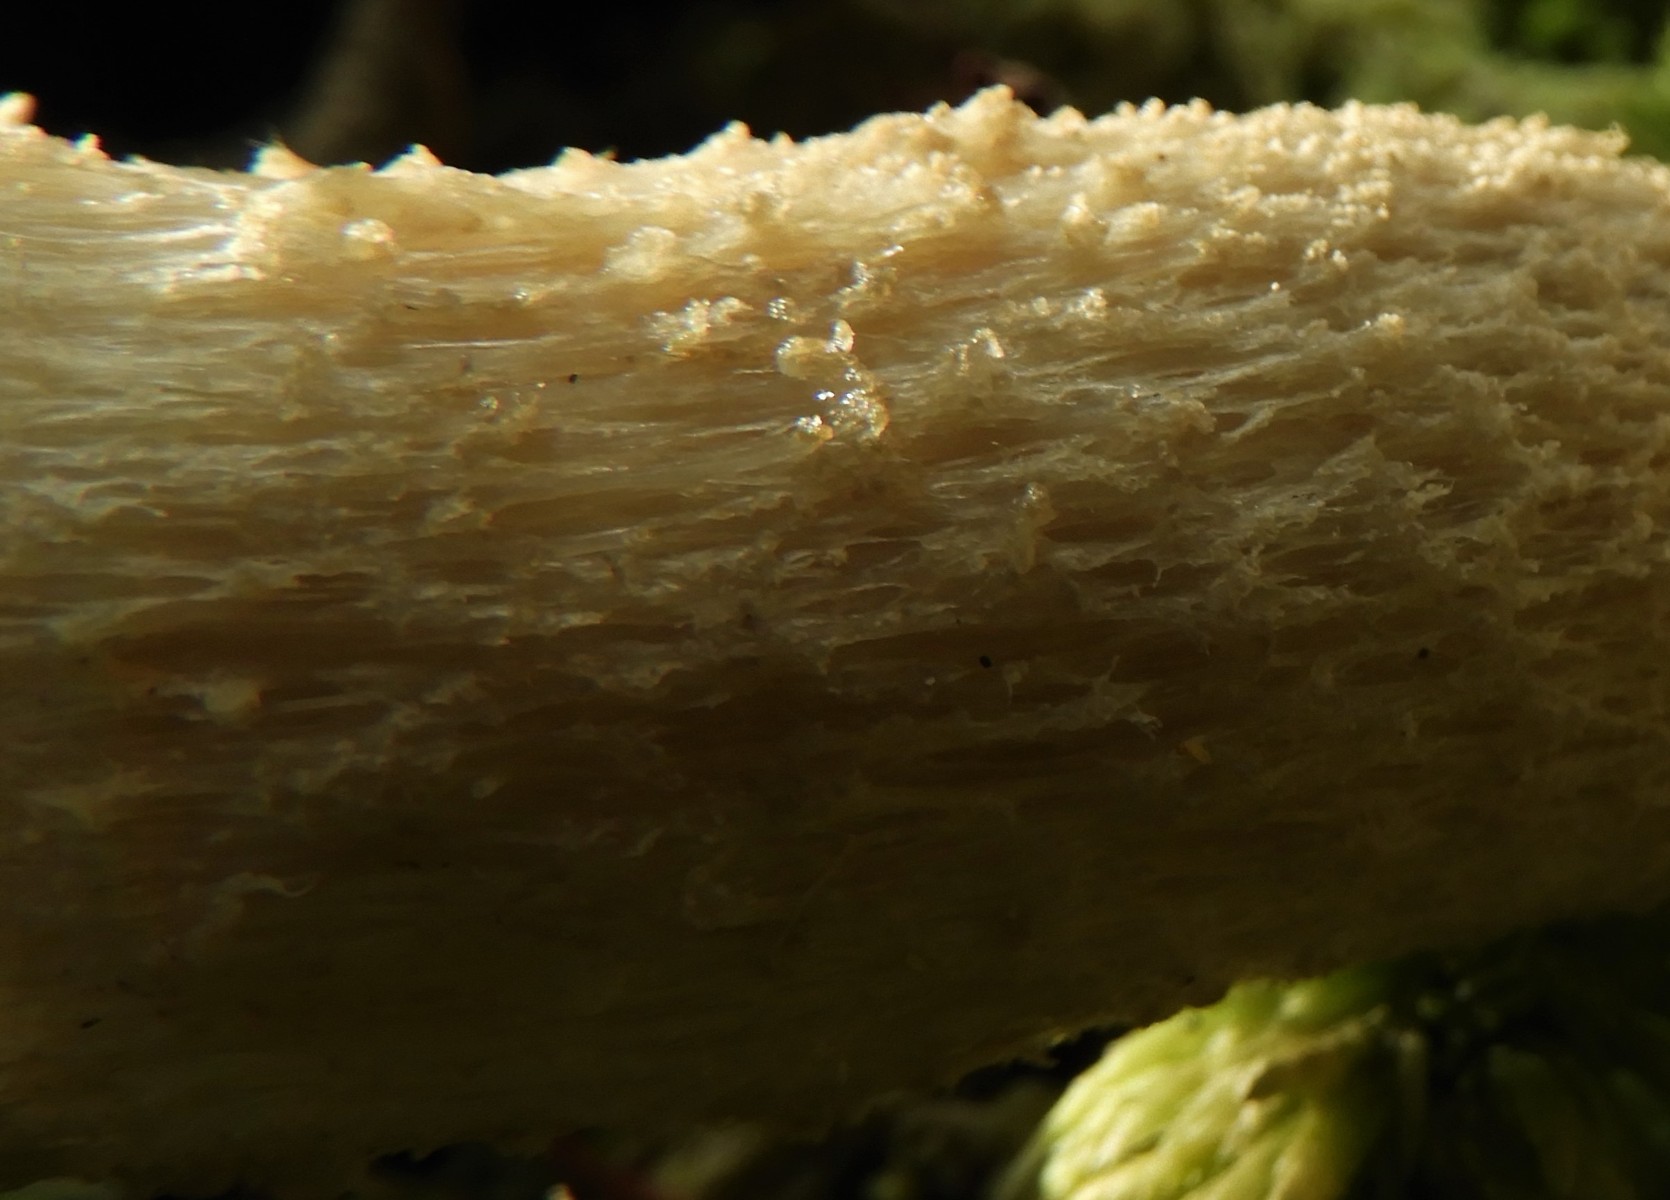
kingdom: Fungi
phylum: Basidiomycota
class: Agaricomycetes
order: Boletales
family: Boletaceae
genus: Leccinum
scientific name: Leccinum
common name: skælrørhat
